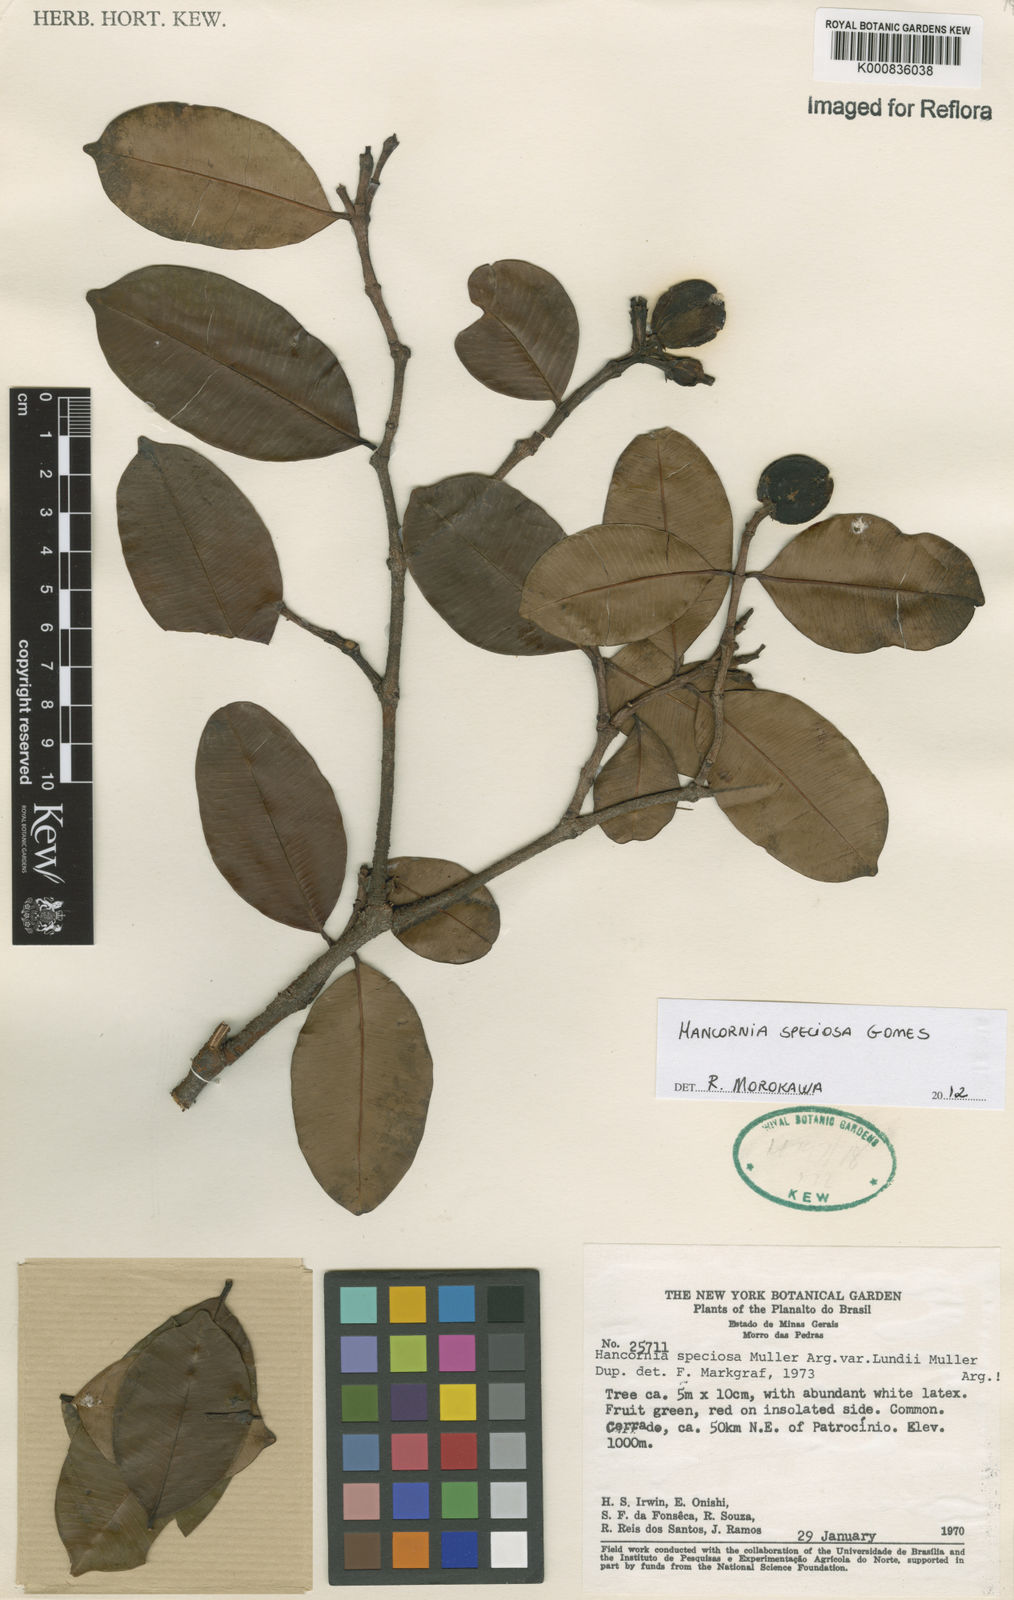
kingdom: Plantae
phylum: Tracheophyta
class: Magnoliopsida
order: Gentianales
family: Apocynaceae
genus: Hancornia
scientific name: Hancornia speciosa
